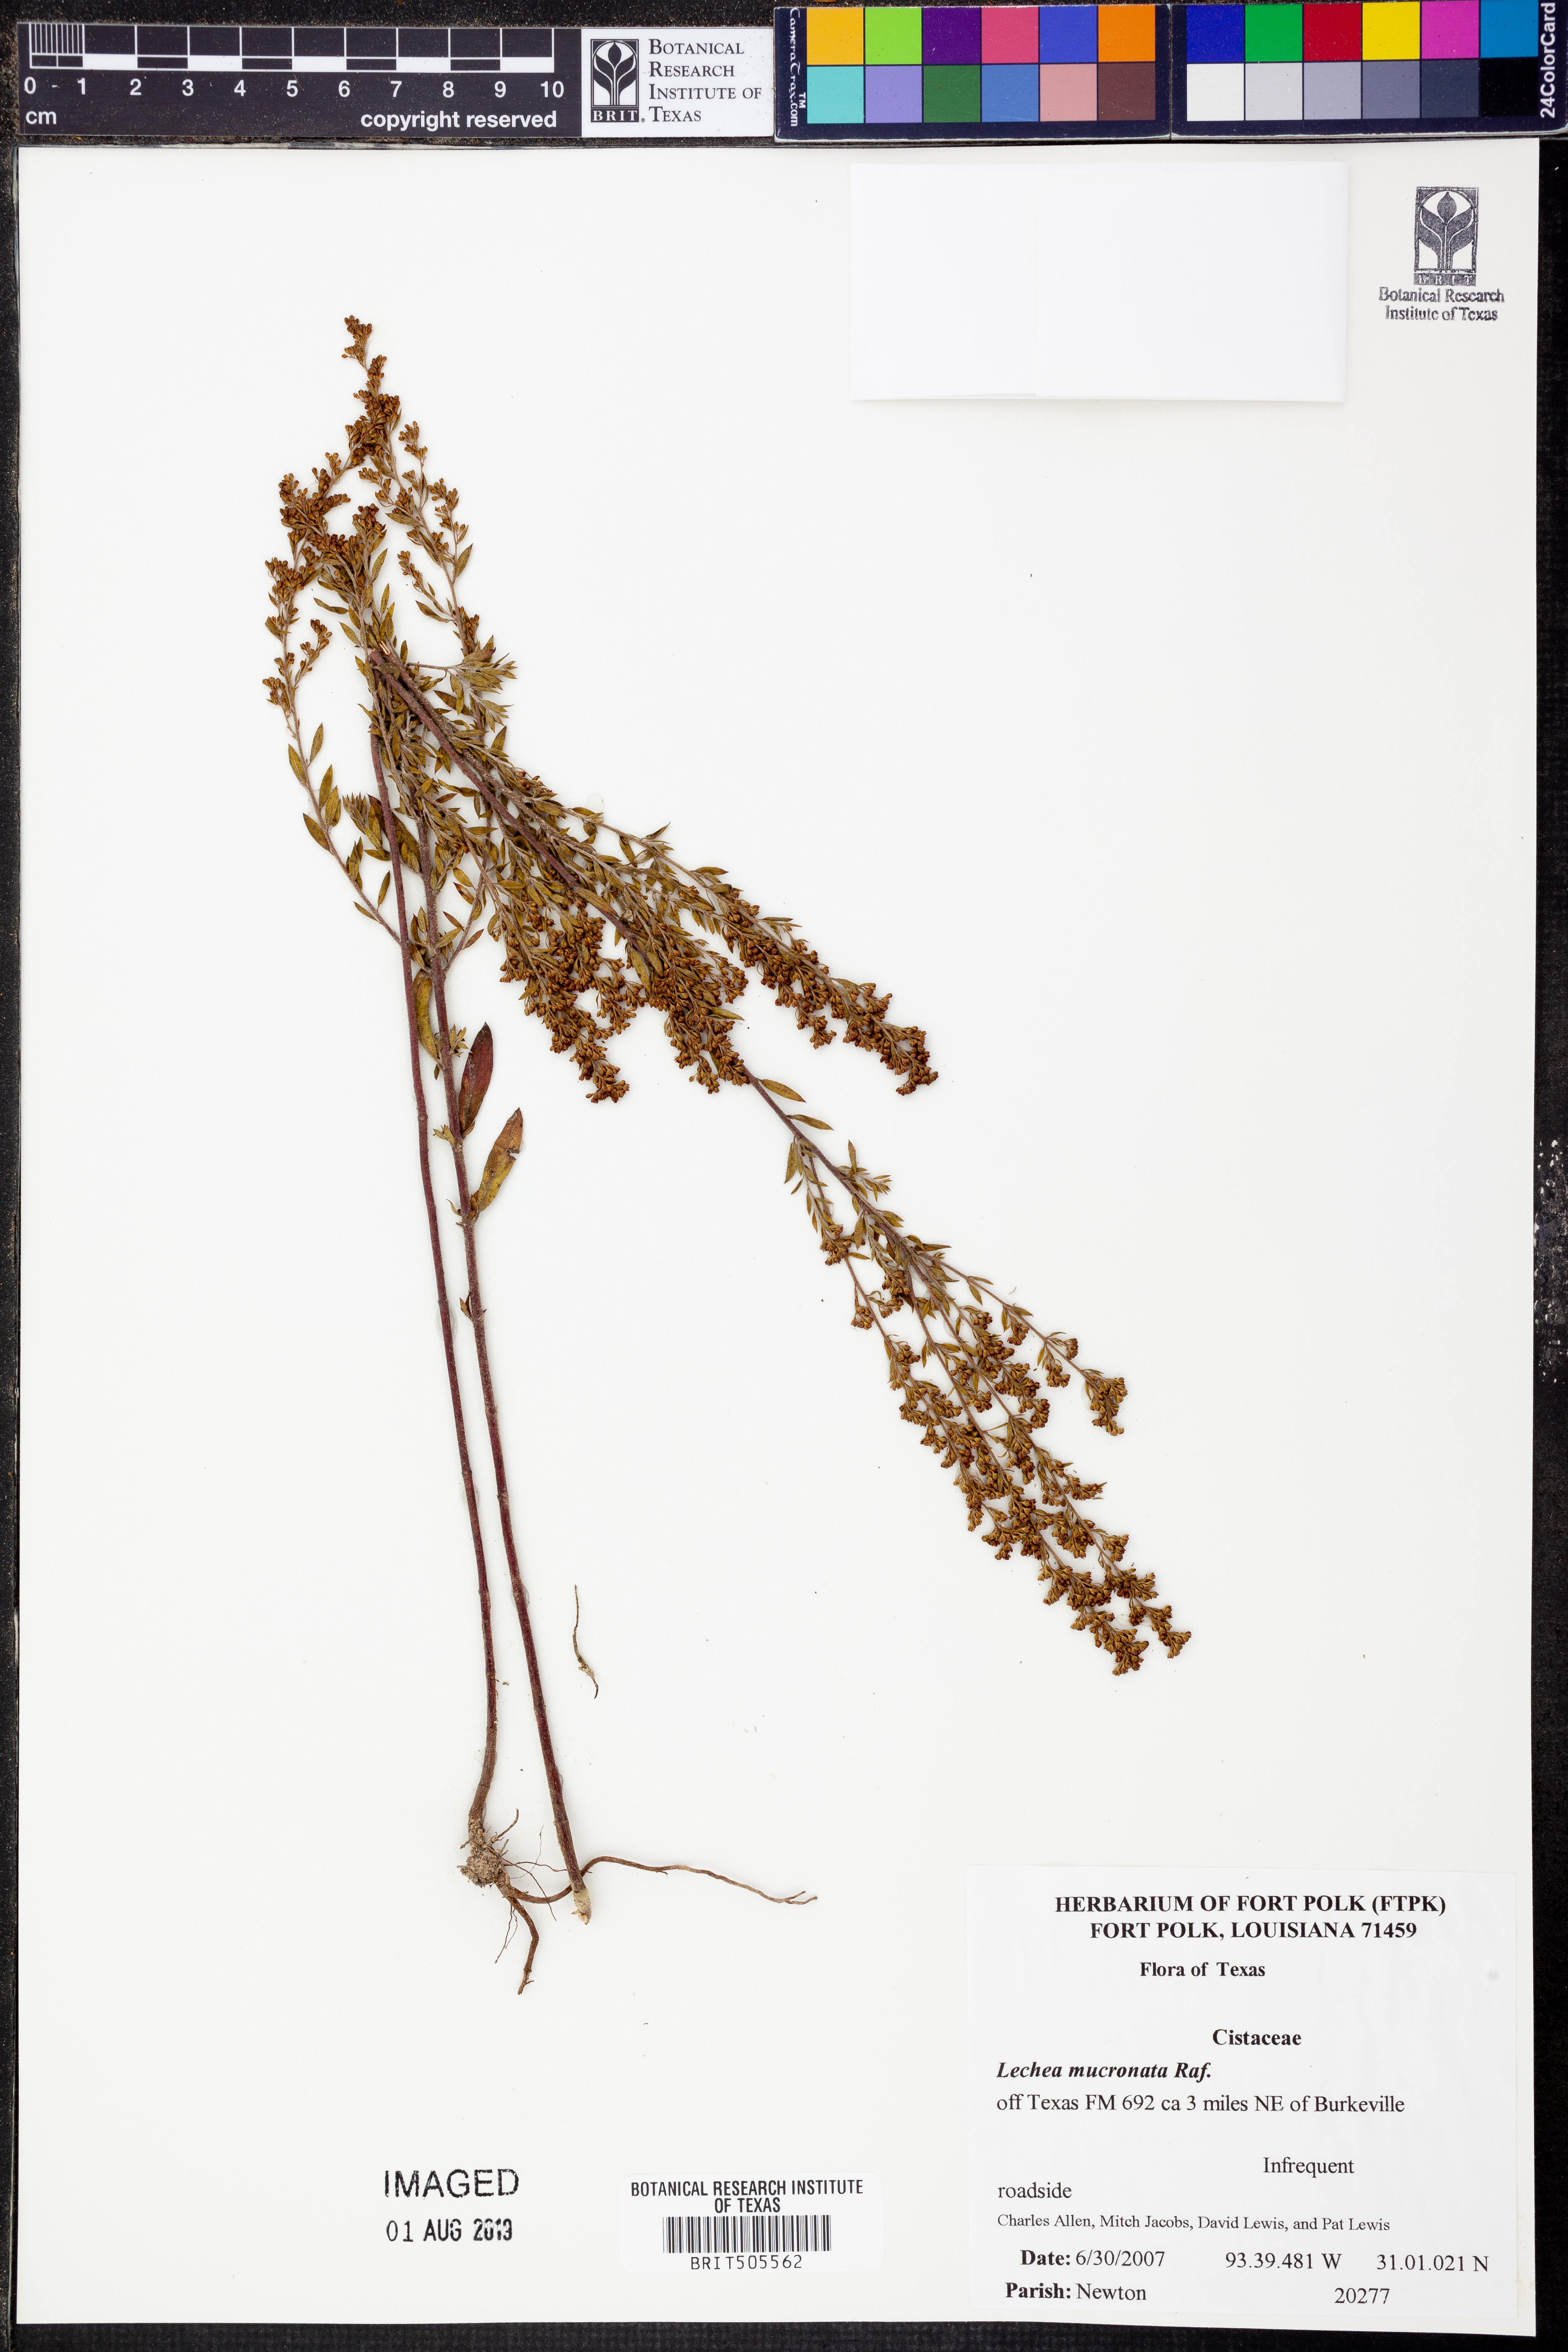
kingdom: Plantae
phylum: Tracheophyta
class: Magnoliopsida
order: Malvales
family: Cistaceae
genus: Lechea
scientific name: Lechea mucronata
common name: Hairy pinweed
